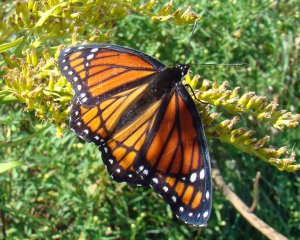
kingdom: Animalia
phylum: Arthropoda
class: Insecta
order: Lepidoptera
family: Nymphalidae
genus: Limenitis
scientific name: Limenitis archippus
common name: Viceroy
